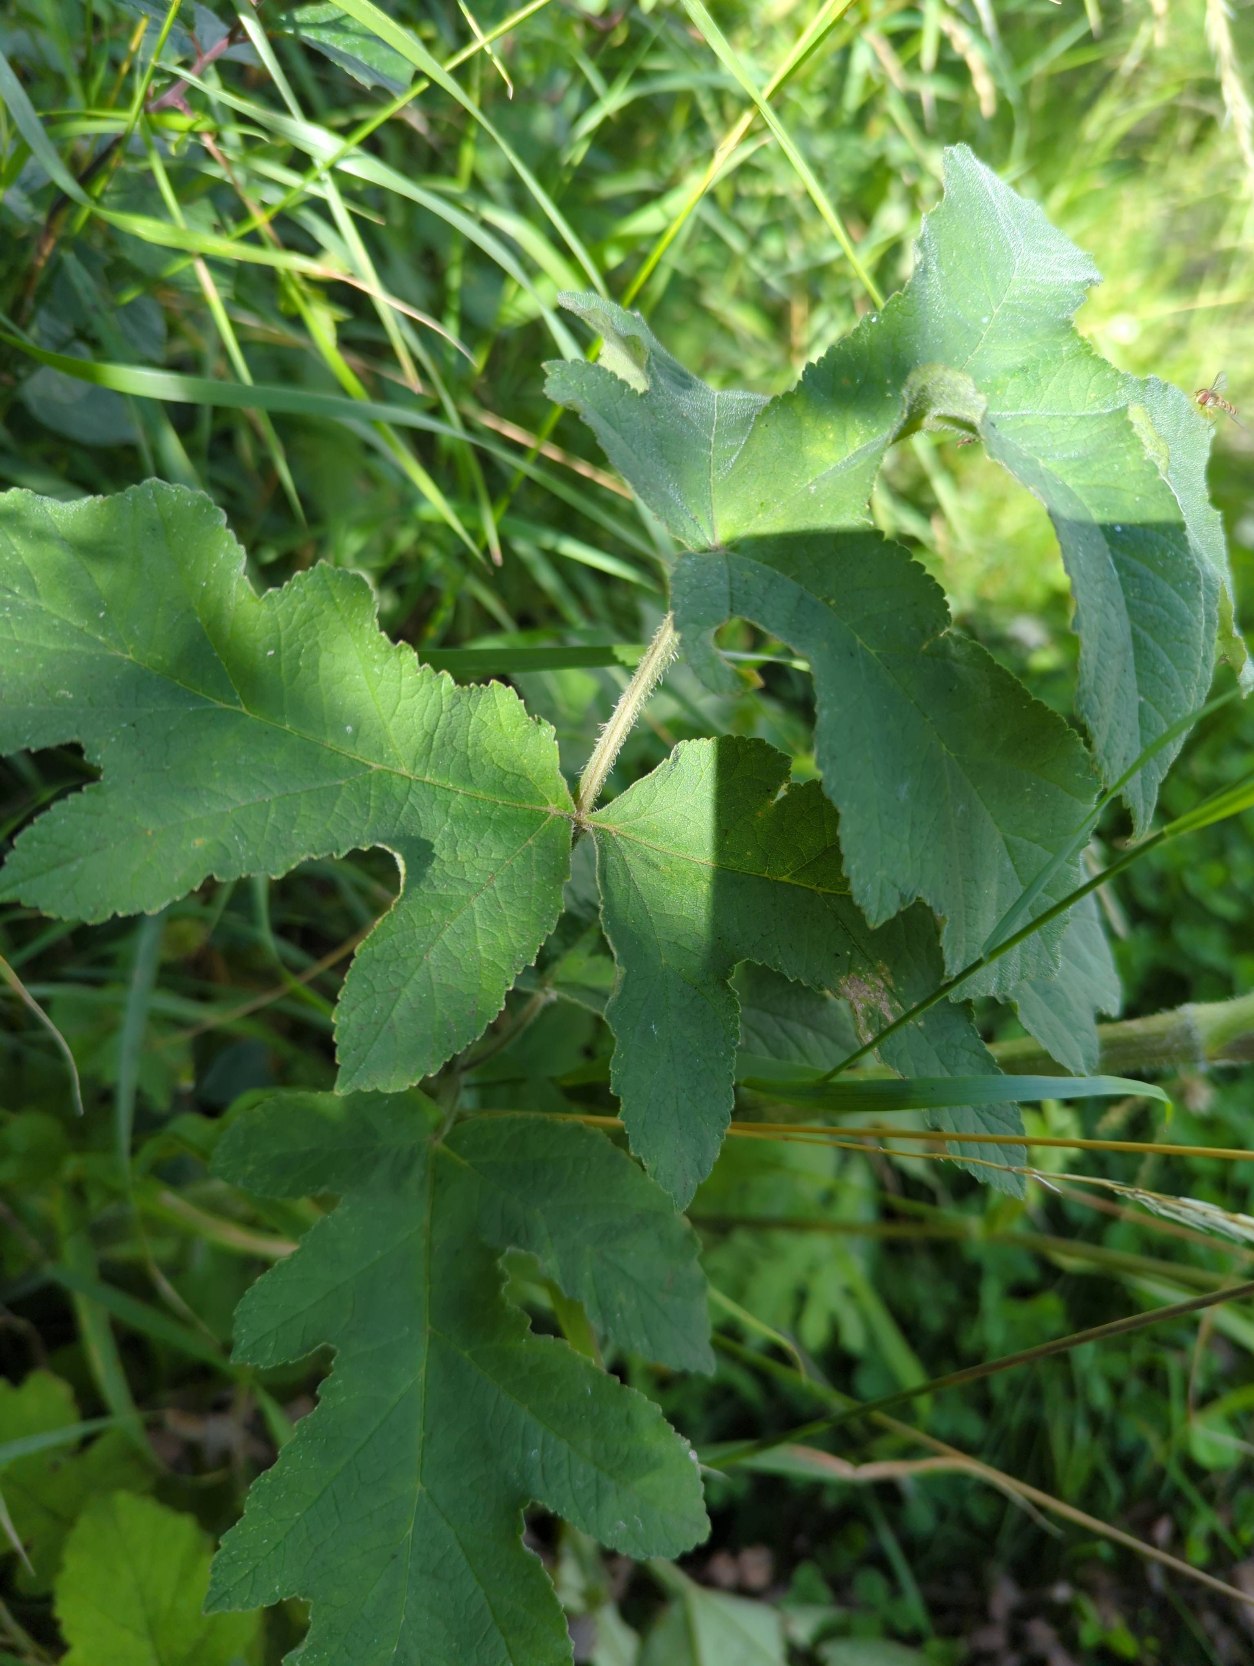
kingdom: Plantae
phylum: Tracheophyta
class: Magnoliopsida
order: Apiales
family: Apiaceae
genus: Heracleum
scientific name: Heracleum sphondylium
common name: Almindelig bjørneklo
